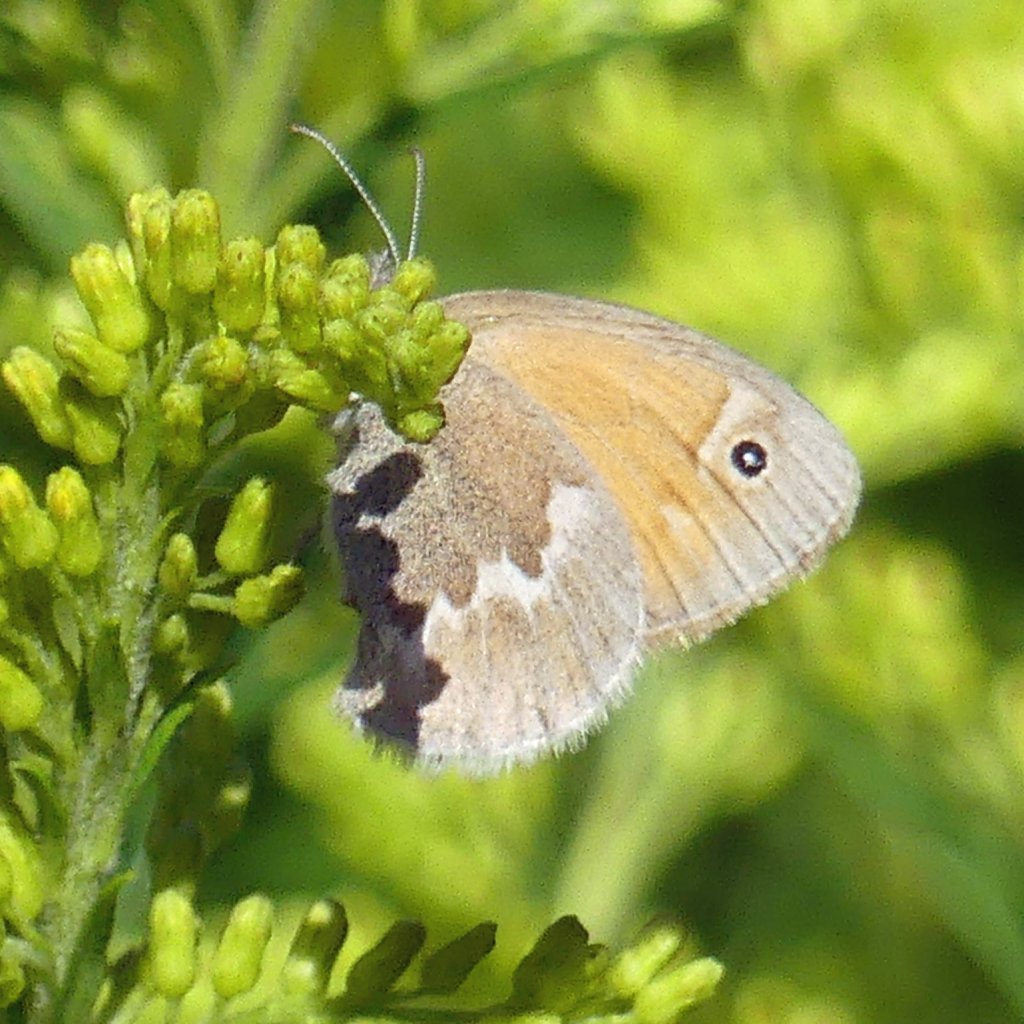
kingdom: Animalia
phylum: Arthropoda
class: Insecta
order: Lepidoptera
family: Nymphalidae
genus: Coenonympha
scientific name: Coenonympha tullia
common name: Large Heath
